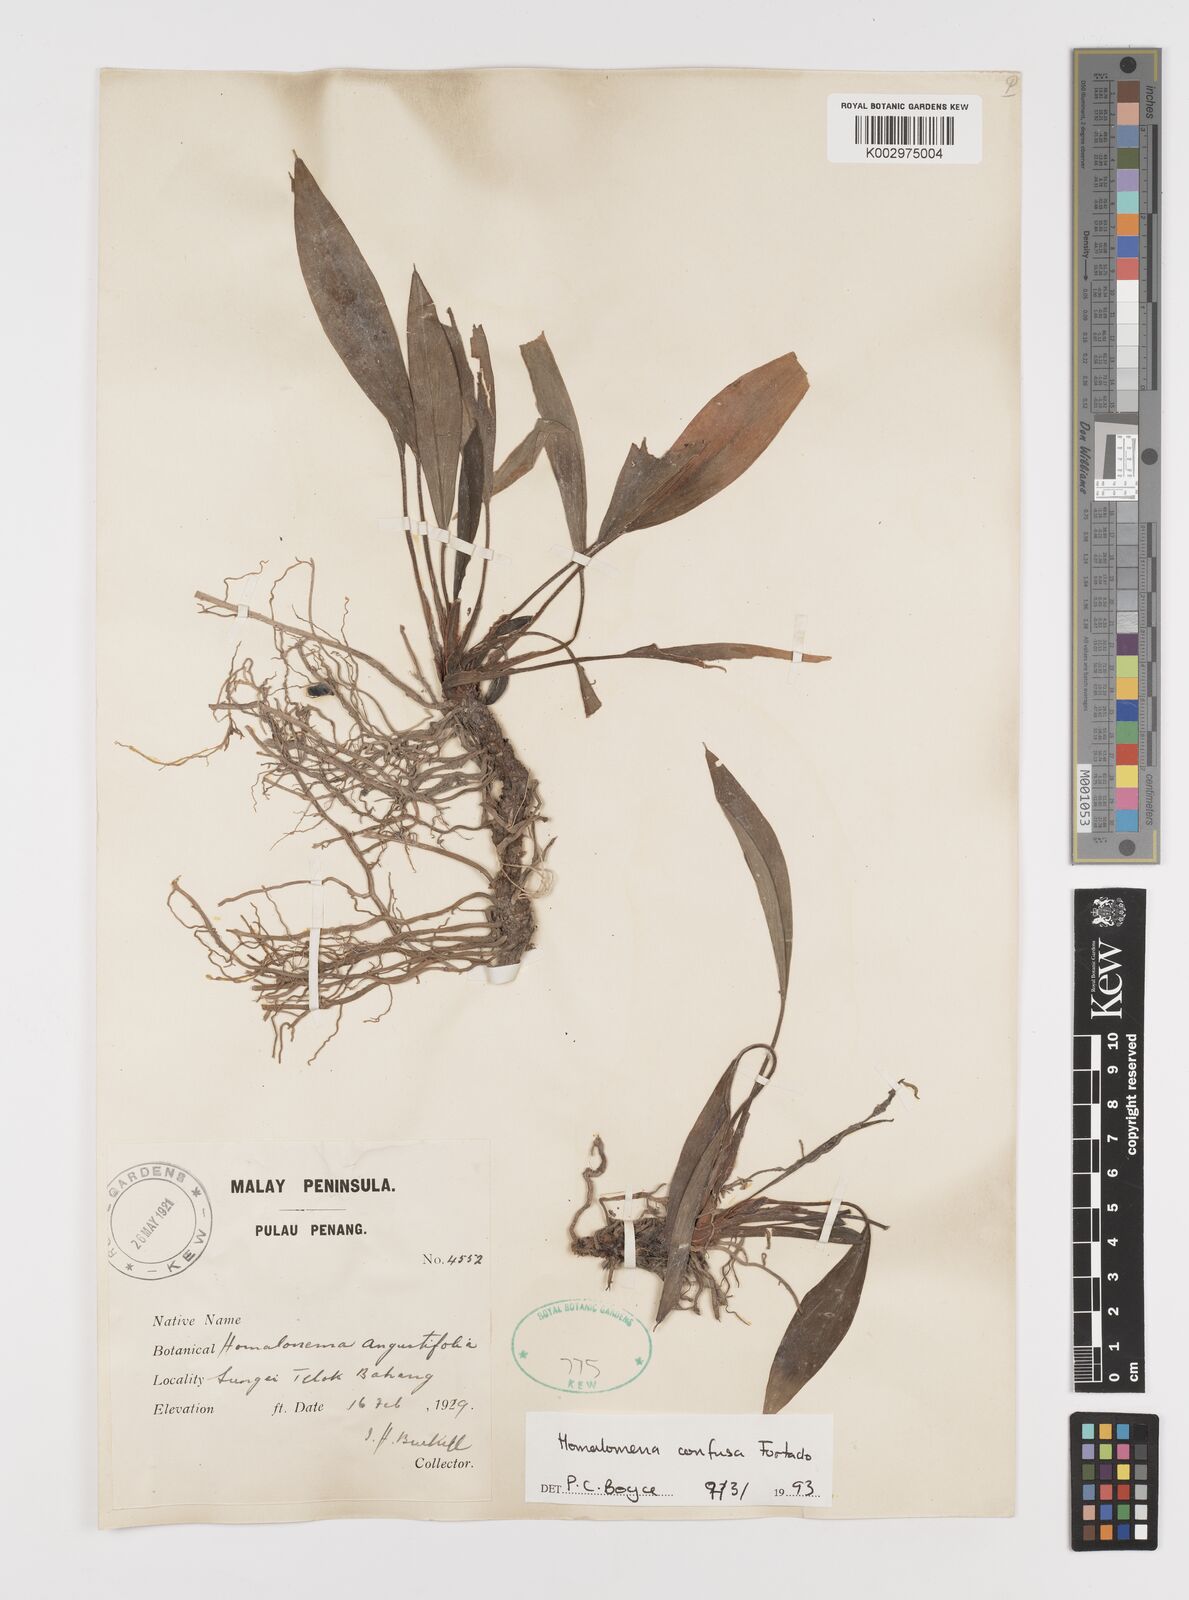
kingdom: Plantae
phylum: Tracheophyta
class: Liliopsida
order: Alismatales
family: Araceae
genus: Homalomena
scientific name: Homalomena confusa
